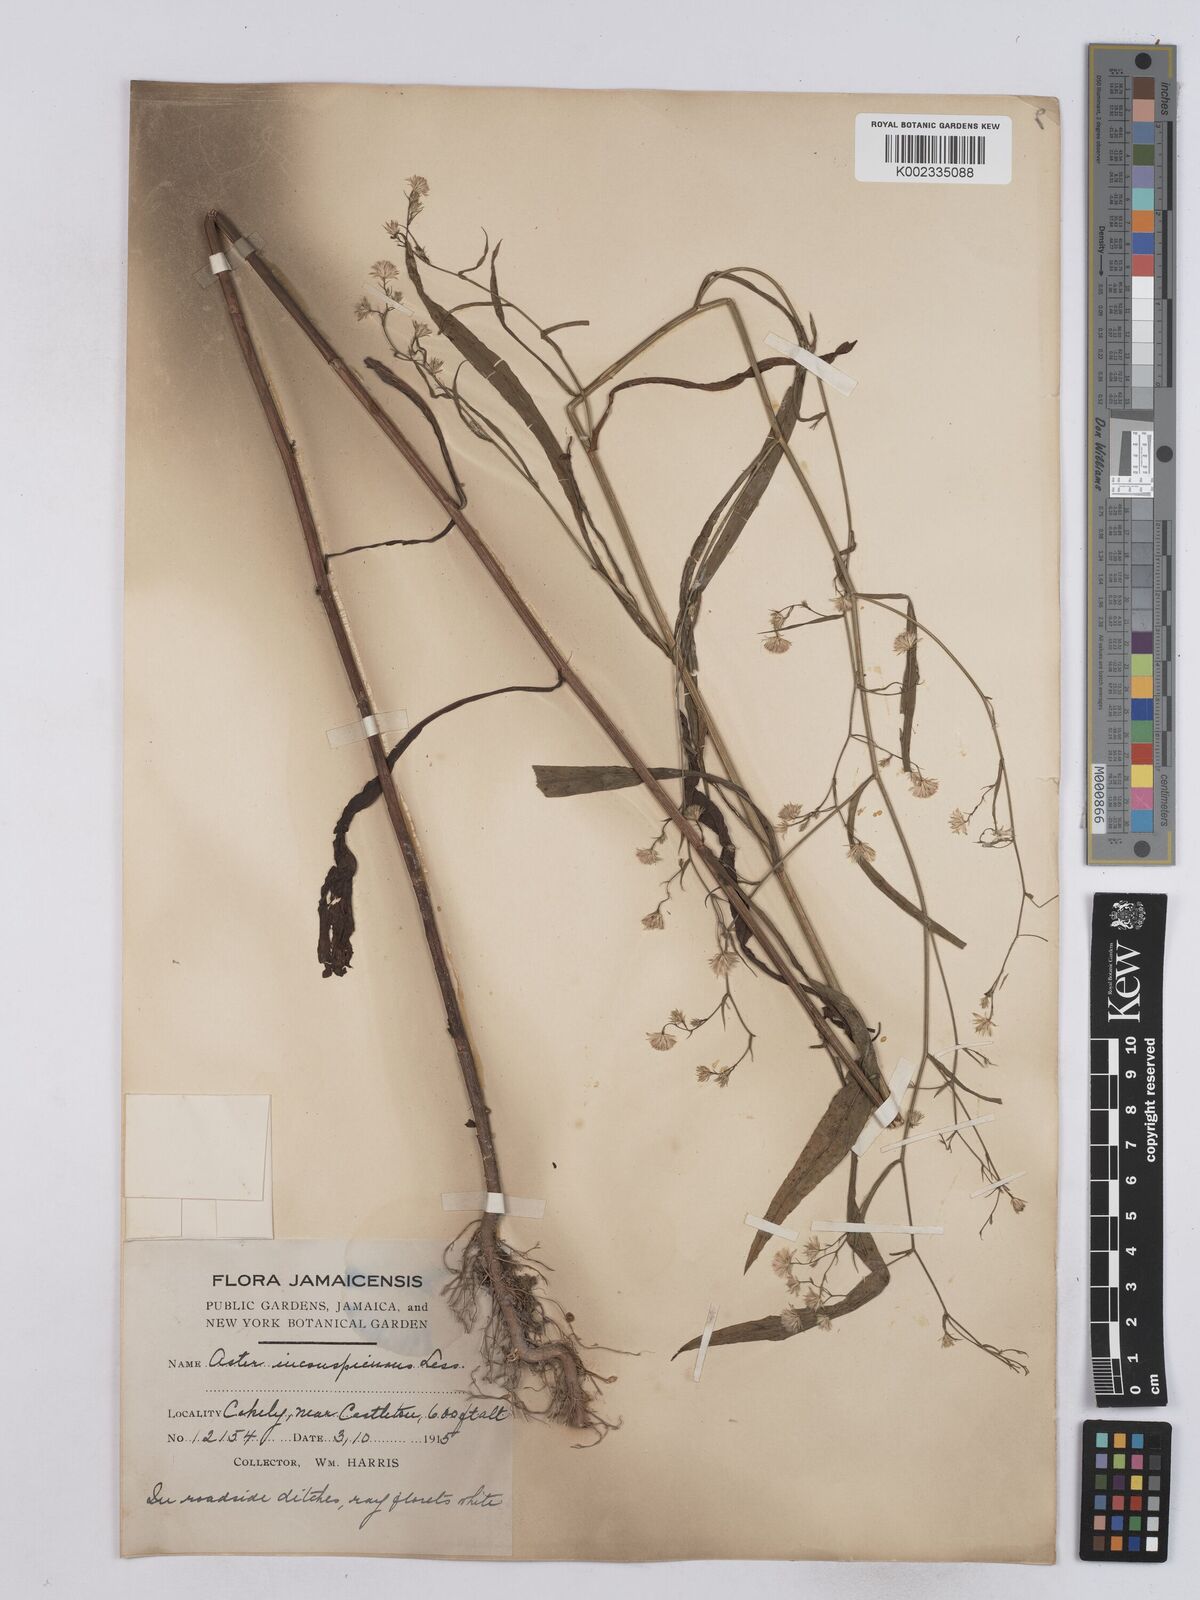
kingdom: Plantae
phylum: Tracheophyta
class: Magnoliopsida
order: Asterales
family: Asteraceae
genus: Symphyotrichum
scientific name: Symphyotrichum expansum
